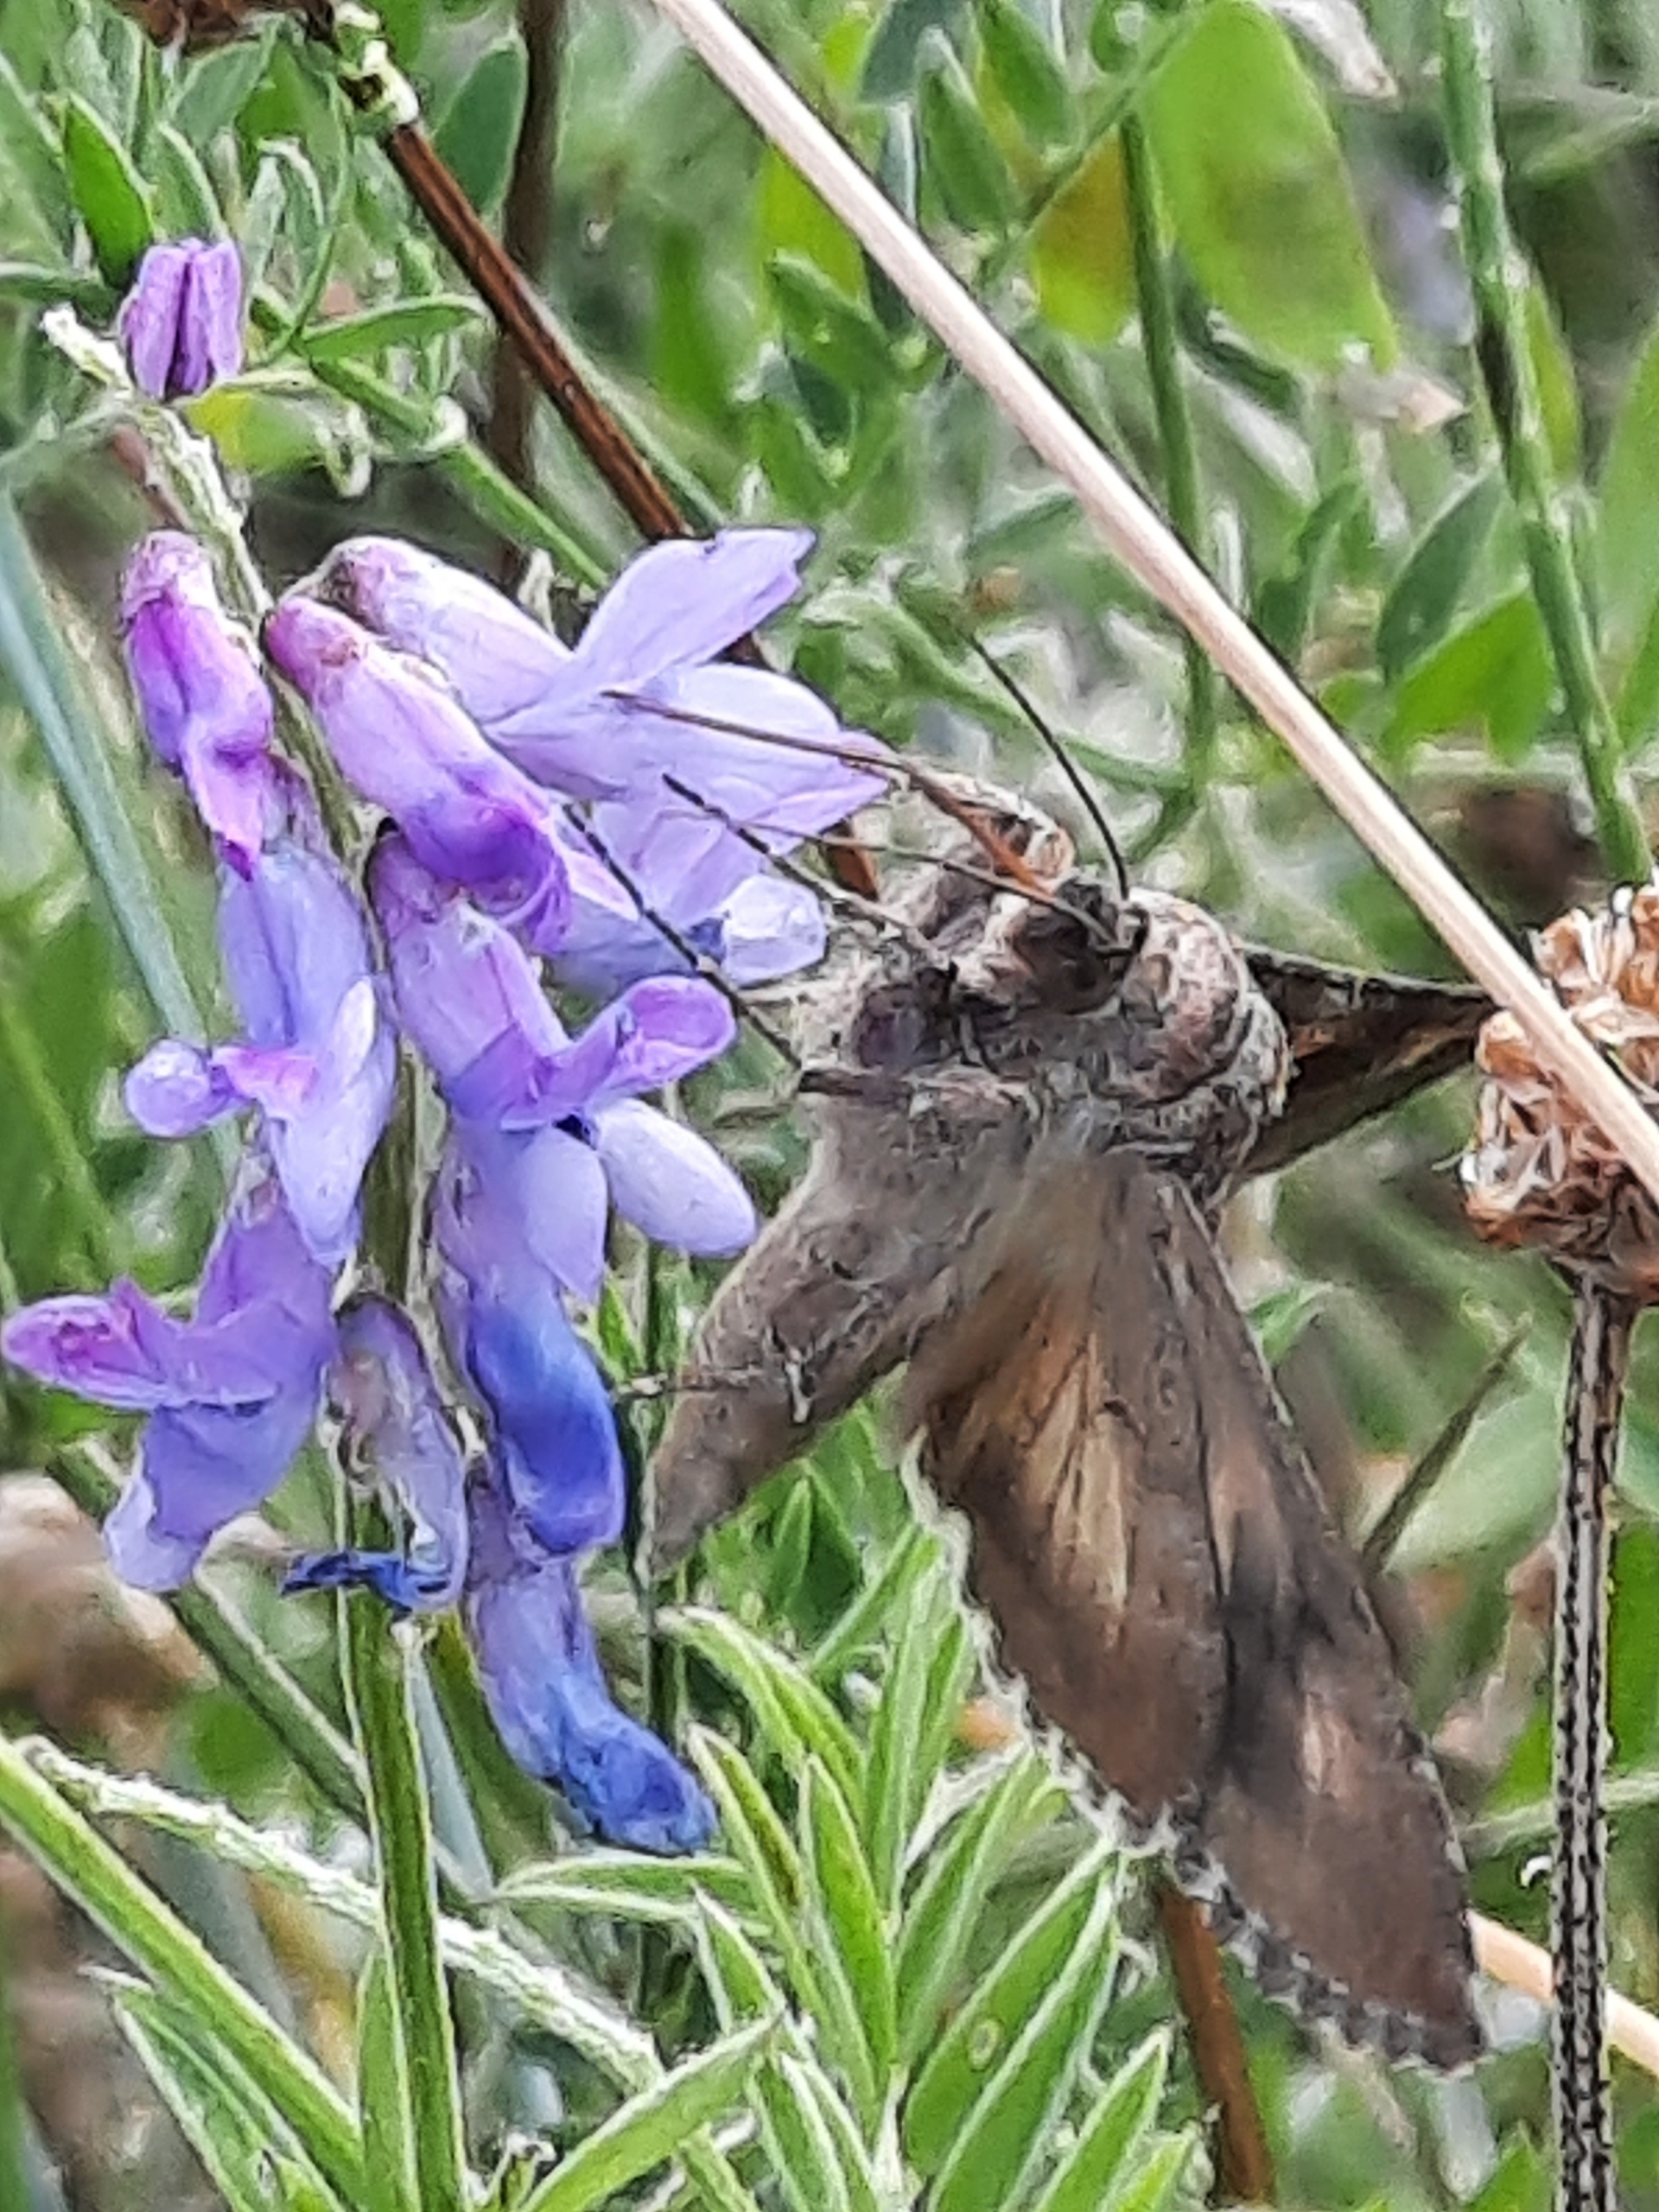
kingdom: Animalia
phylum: Arthropoda
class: Insecta
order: Lepidoptera
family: Noctuidae
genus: Autographa
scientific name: Autographa gamma
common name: Gammaugle
